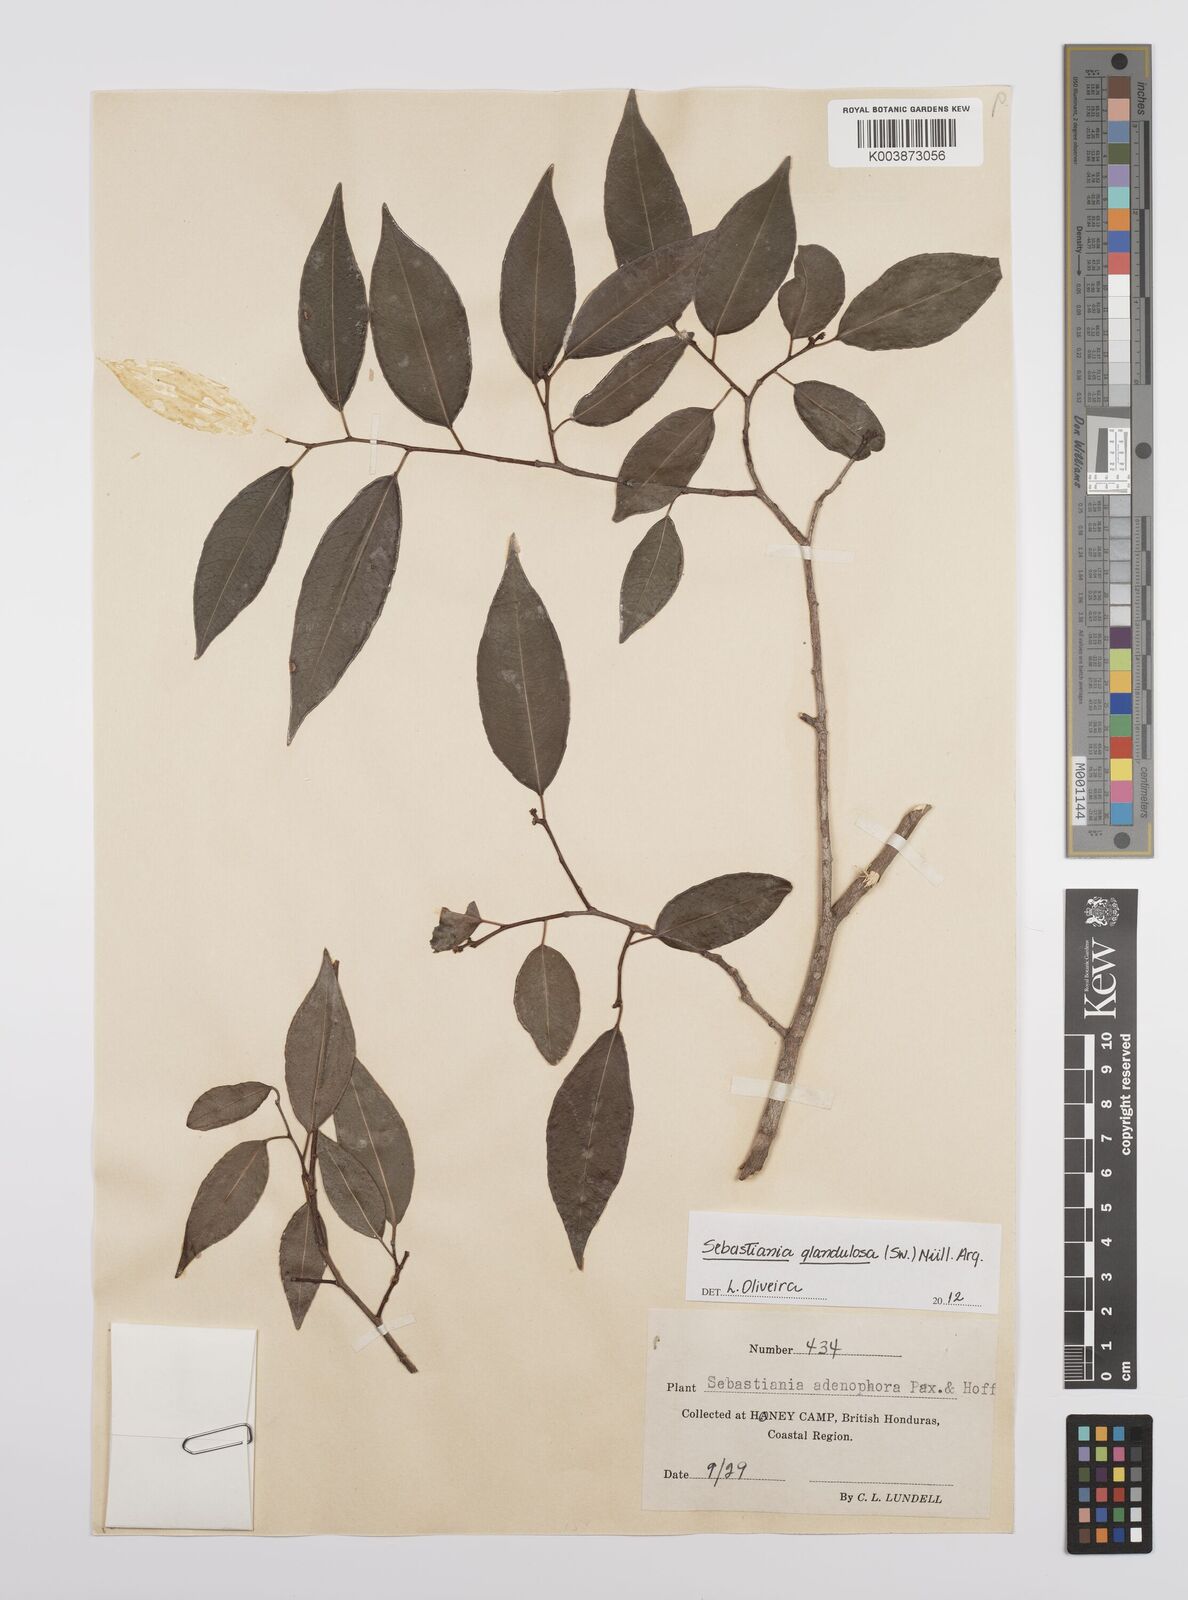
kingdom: Plantae
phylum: Tracheophyta
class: Magnoliopsida
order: Malpighiales
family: Euphorbiaceae
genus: Sebastiania
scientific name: Sebastiania glandulosa
